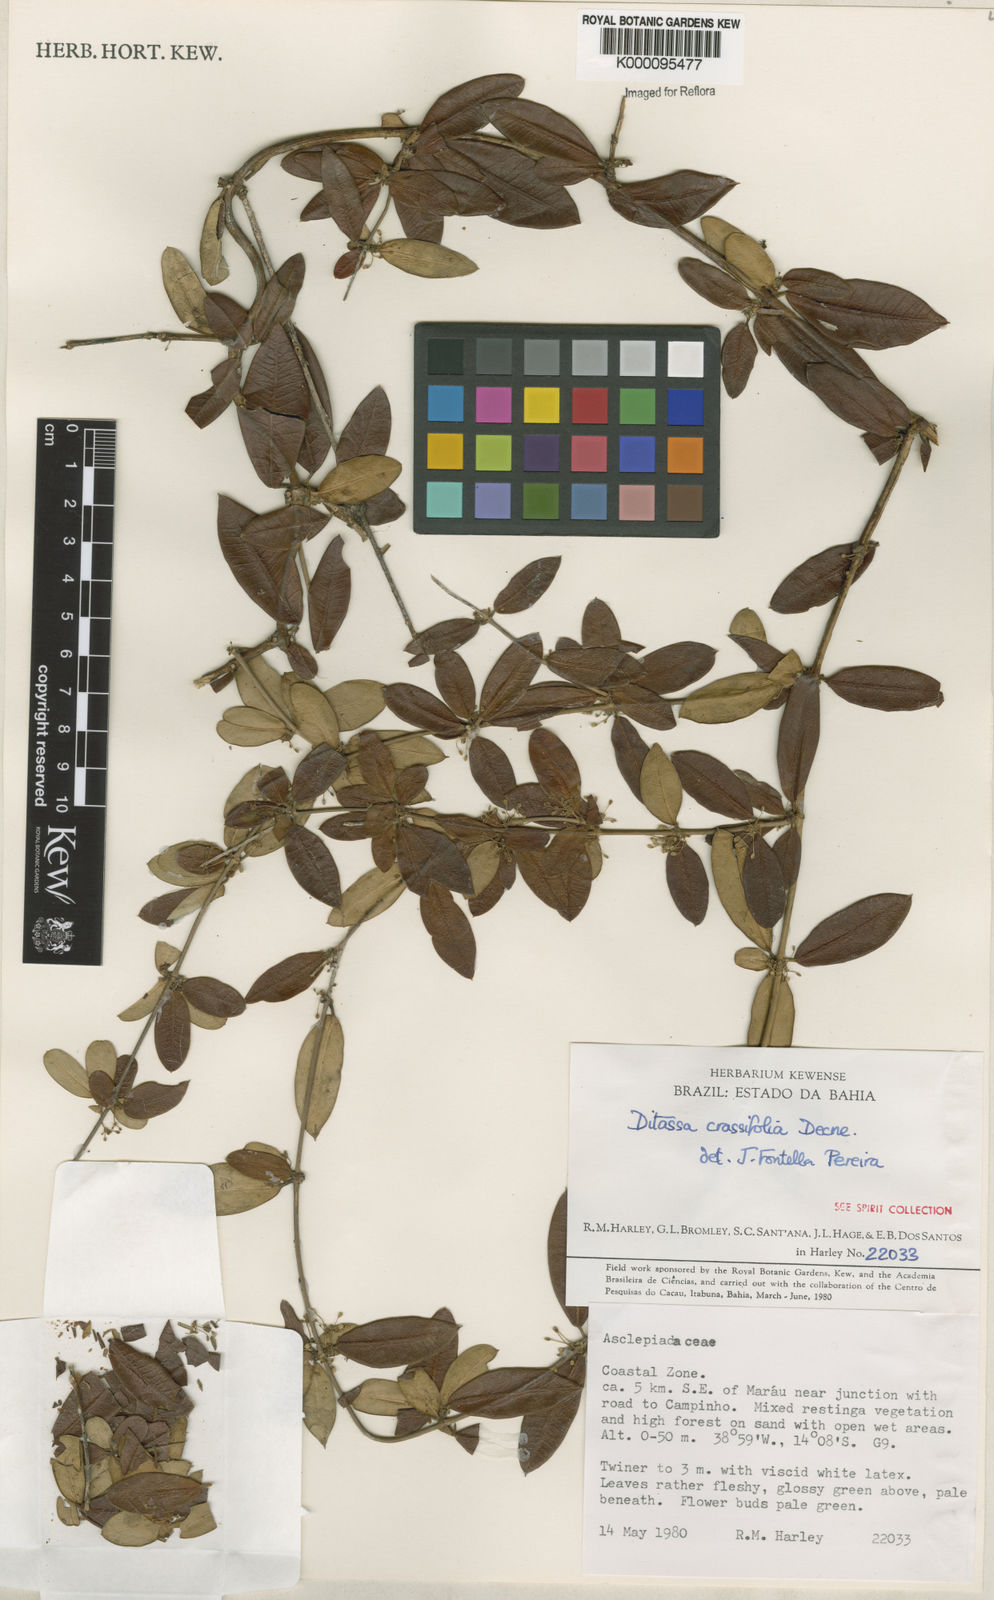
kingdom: Plantae
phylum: Tracheophyta
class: Magnoliopsida
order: Gentianales
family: Apocynaceae
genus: Ditassa
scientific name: Ditassa crassifolia
